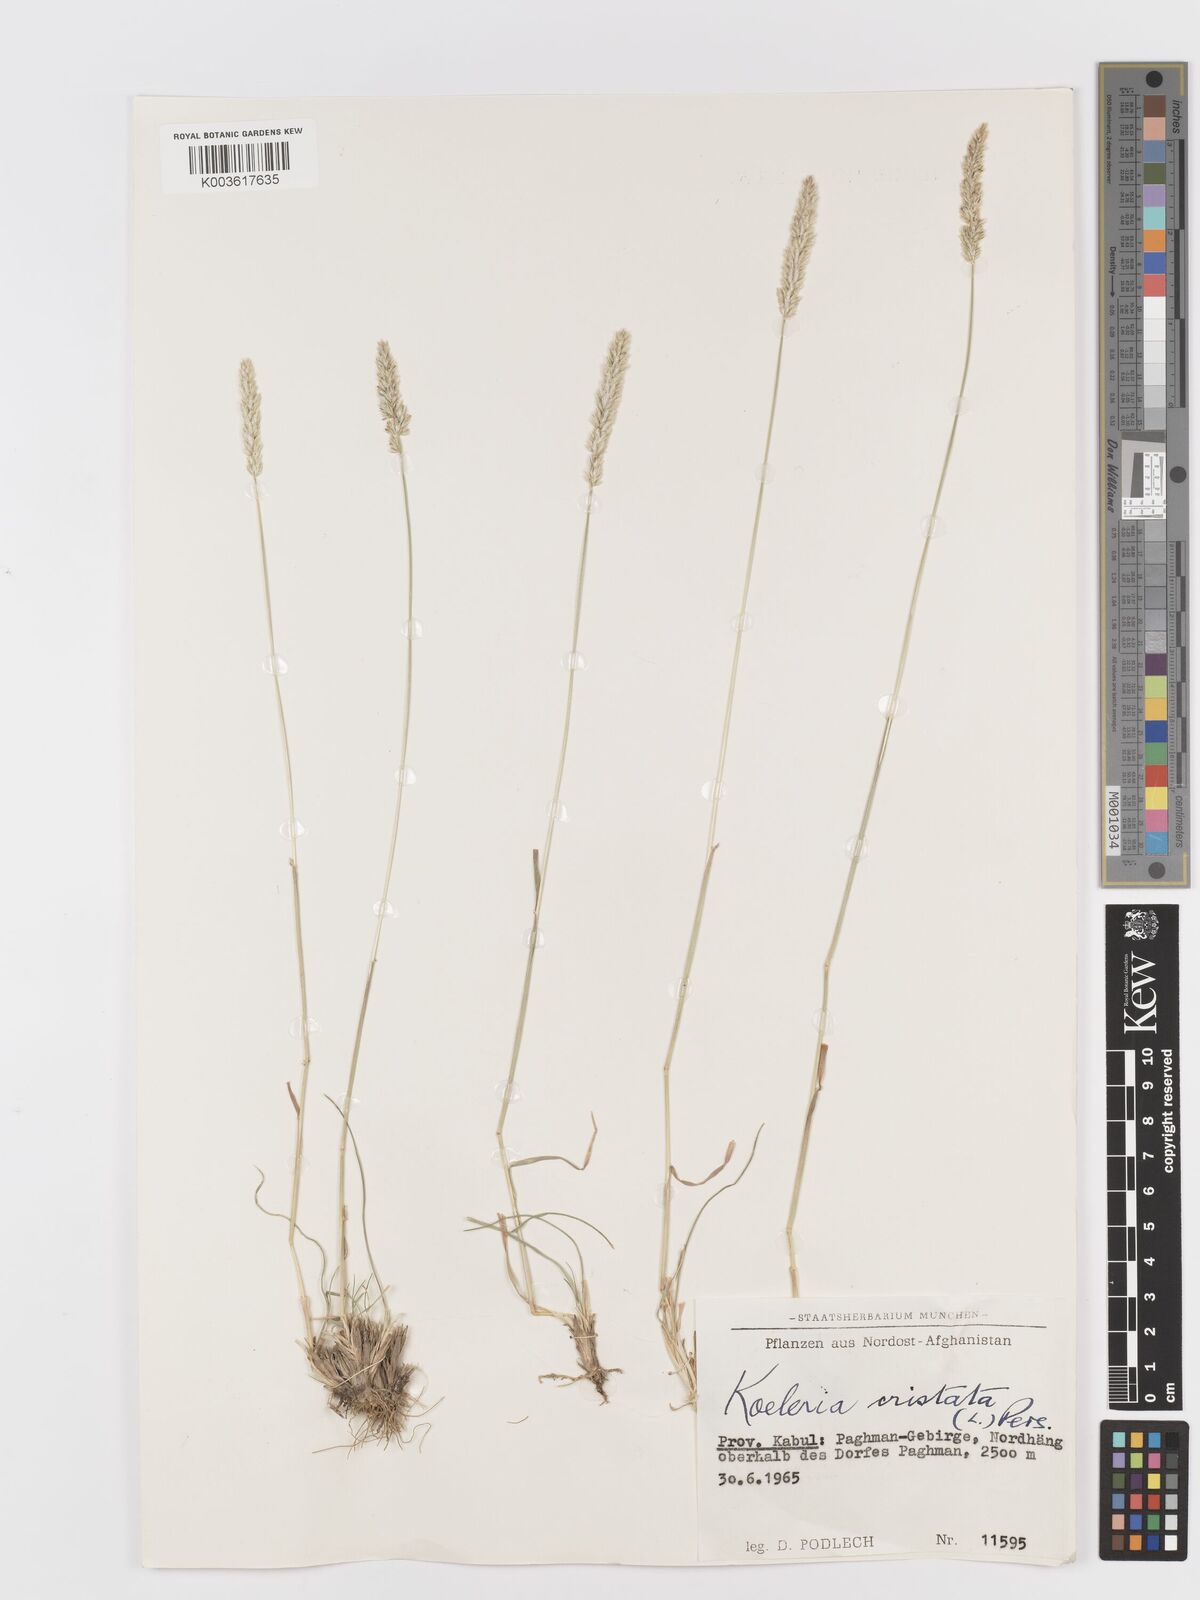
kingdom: Plantae
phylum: Tracheophyta
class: Liliopsida
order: Poales
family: Poaceae
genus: Koeleria
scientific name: Koeleria macrantha
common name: Crested hair-grass
